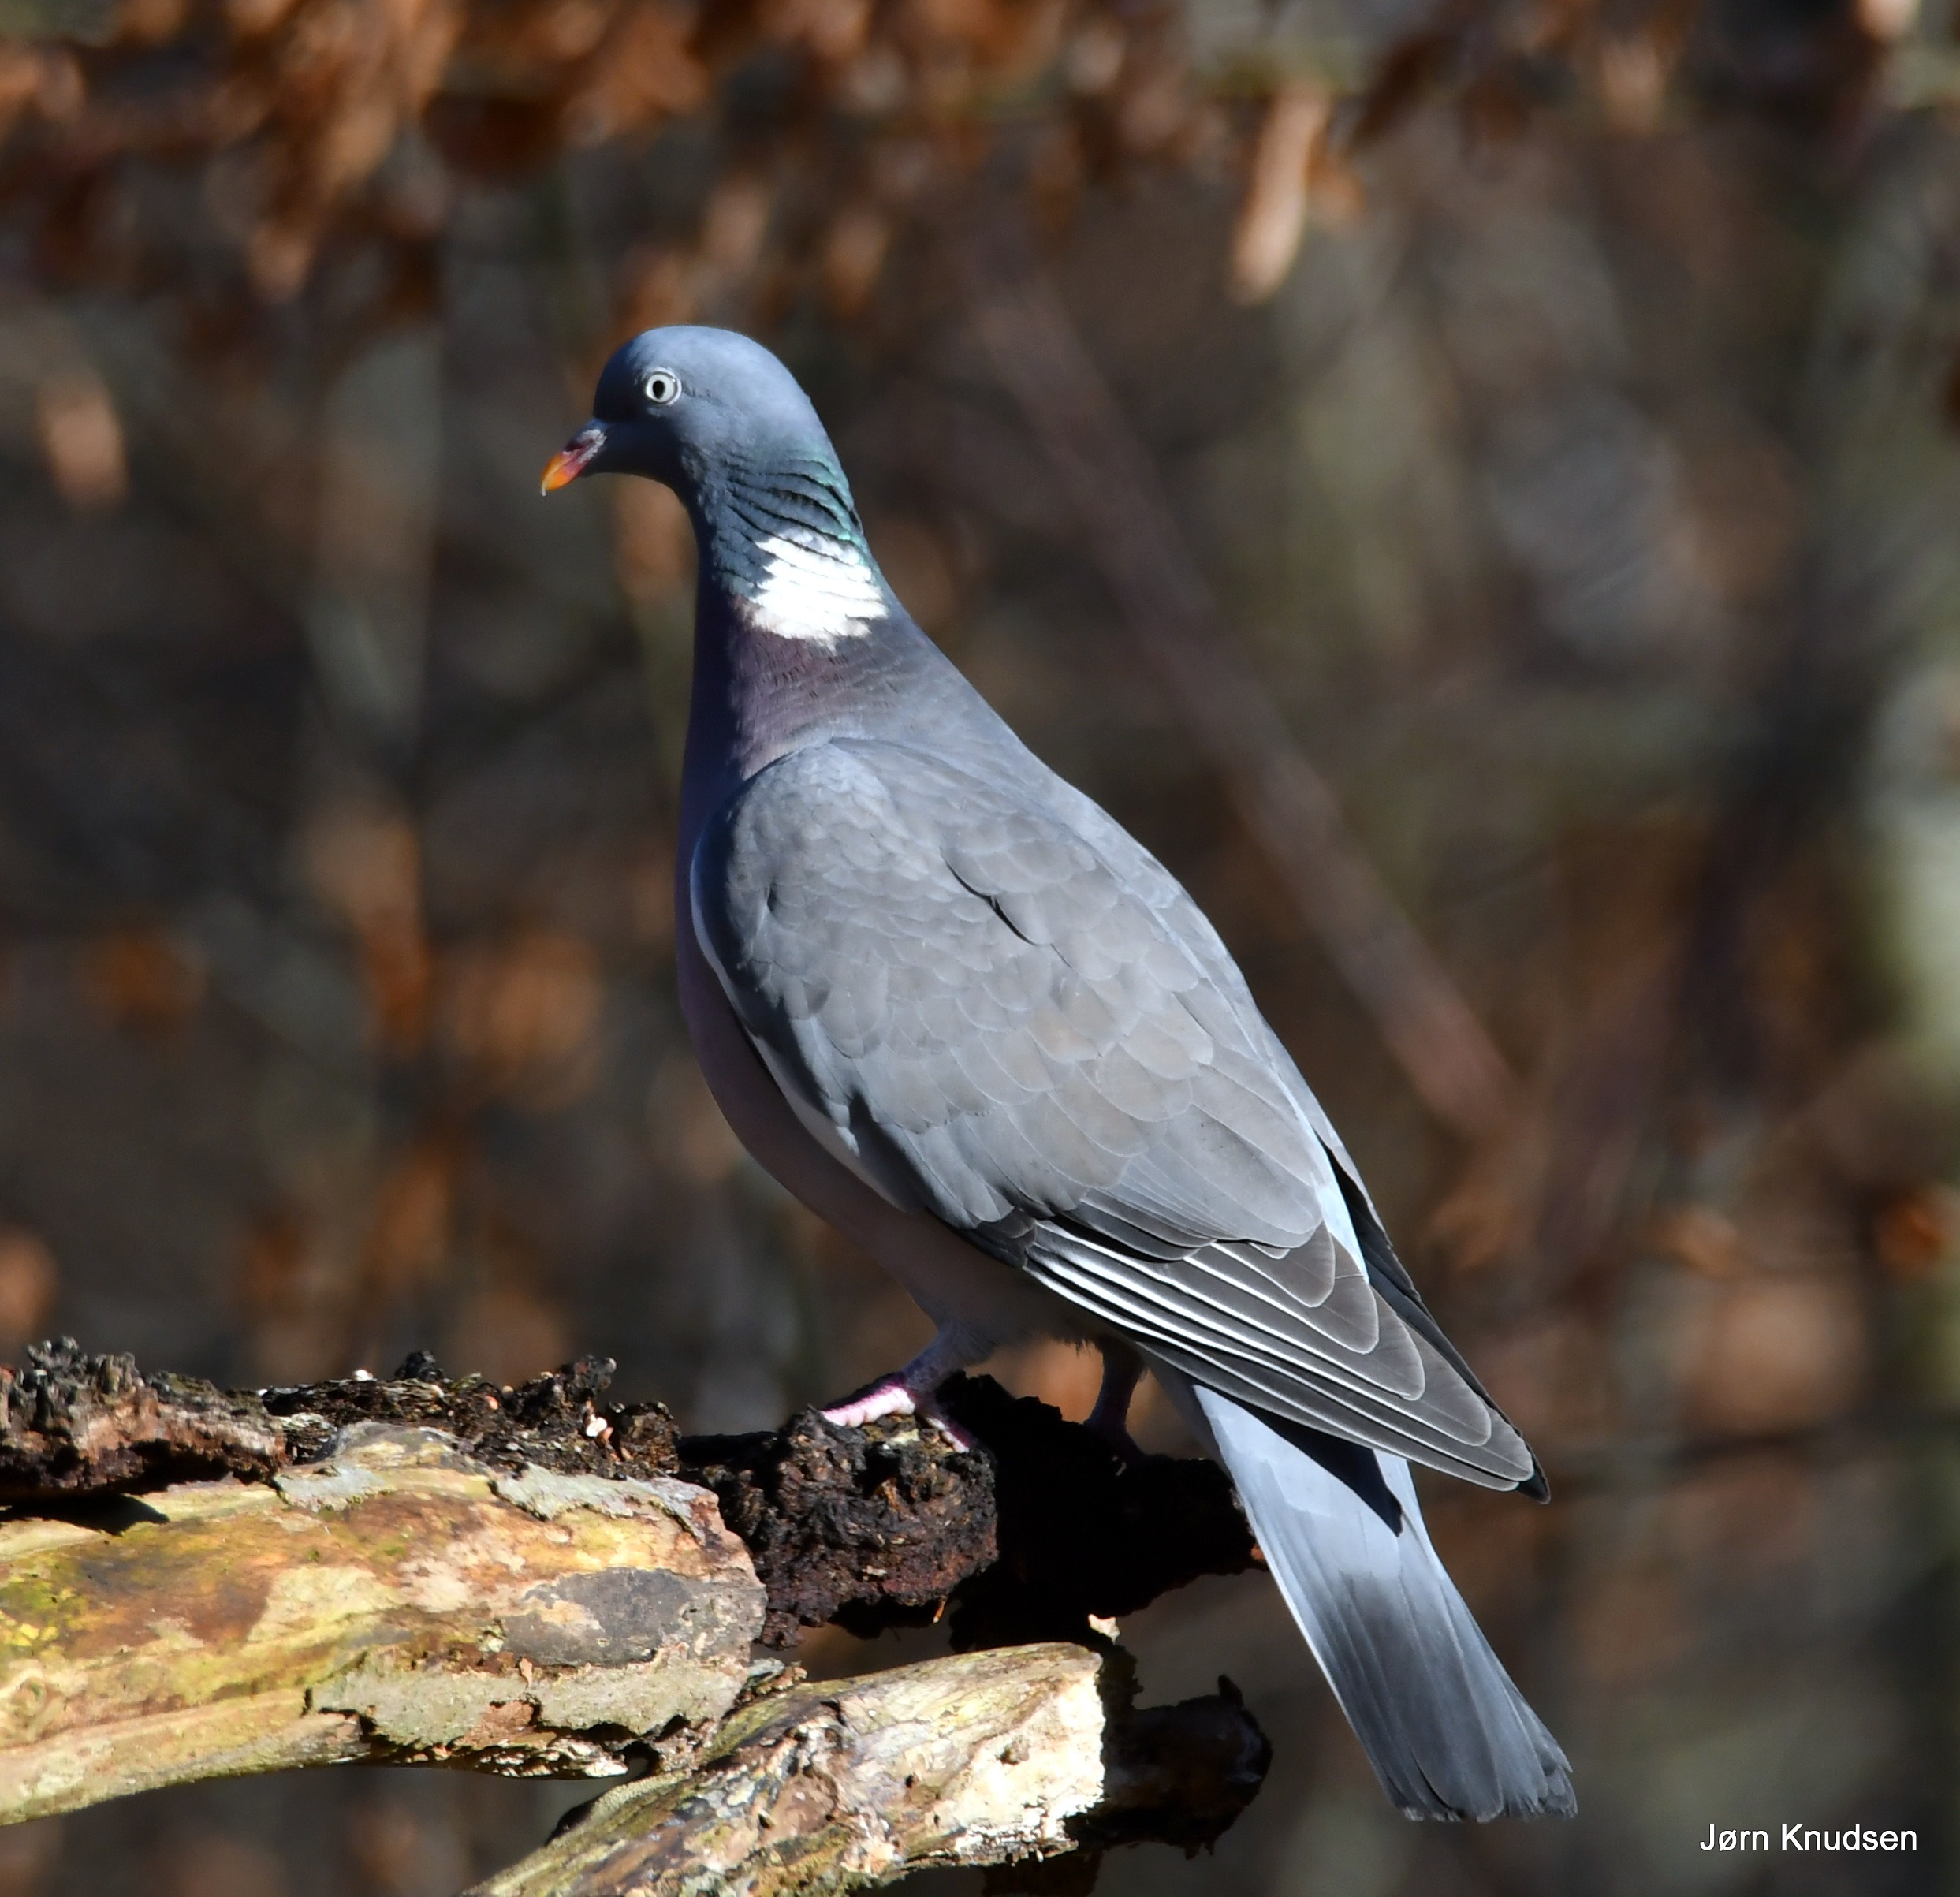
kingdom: Animalia
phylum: Chordata
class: Aves
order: Columbiformes
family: Columbidae
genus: Columba
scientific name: Columba palumbus
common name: Ringdue
